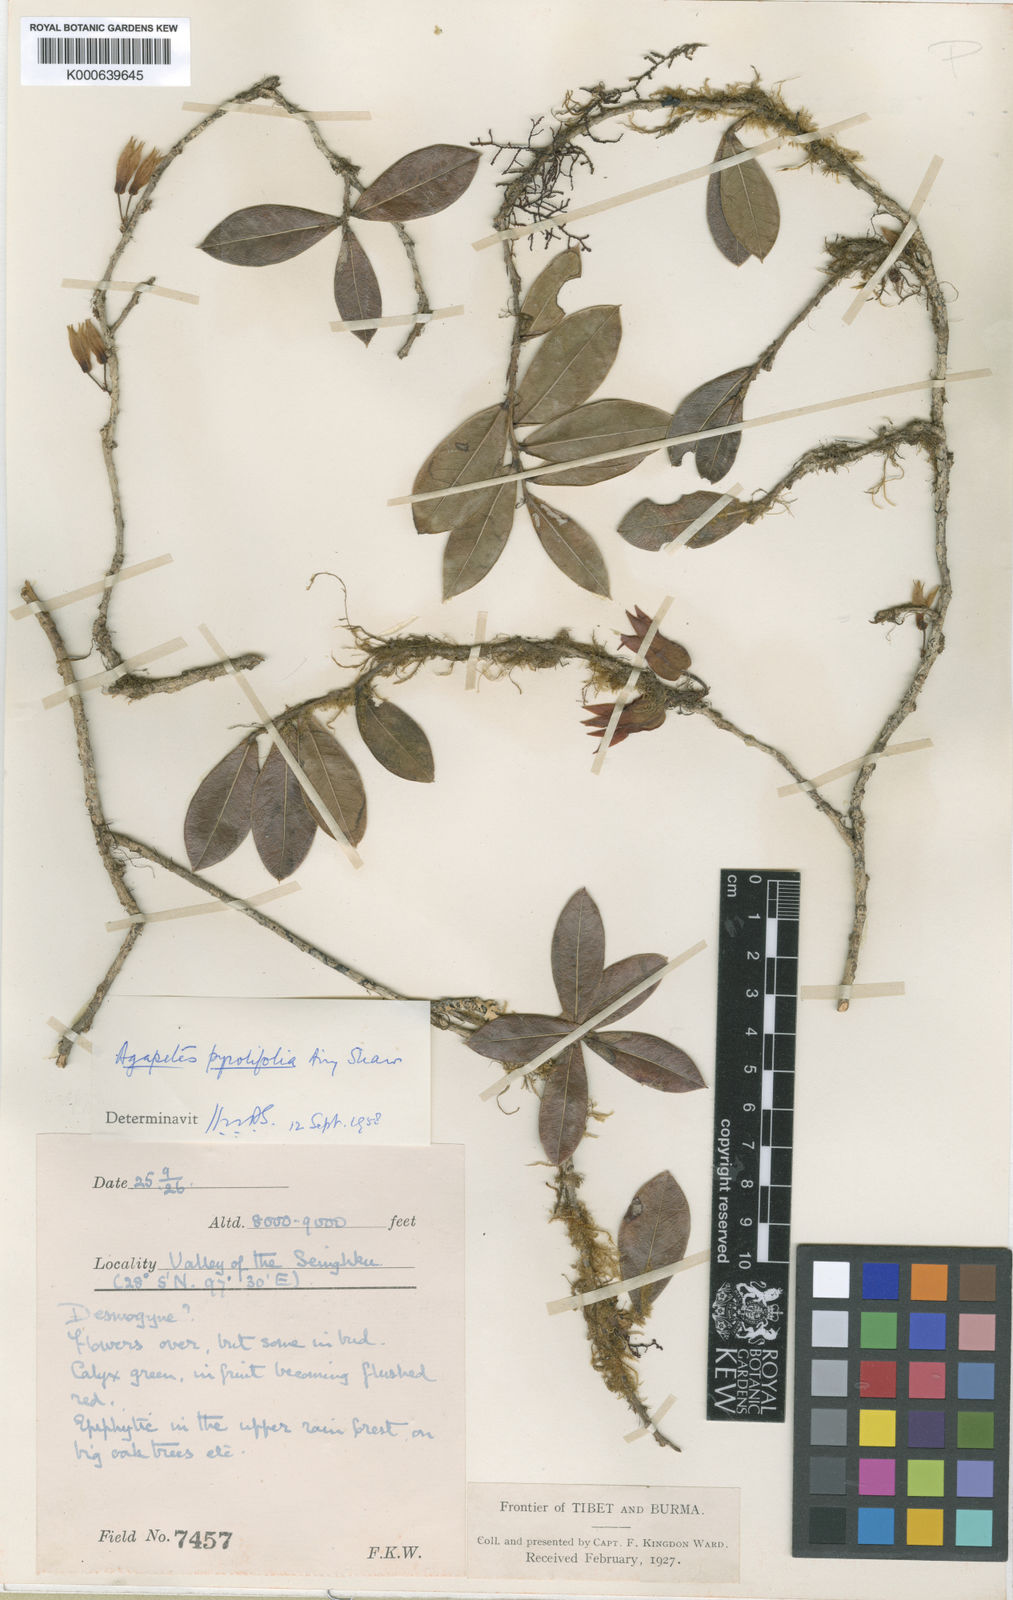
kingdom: Plantae
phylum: Tracheophyta
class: Magnoliopsida
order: Ericales
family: Ericaceae
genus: Agapetes
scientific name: Agapetes pyrolifolia
